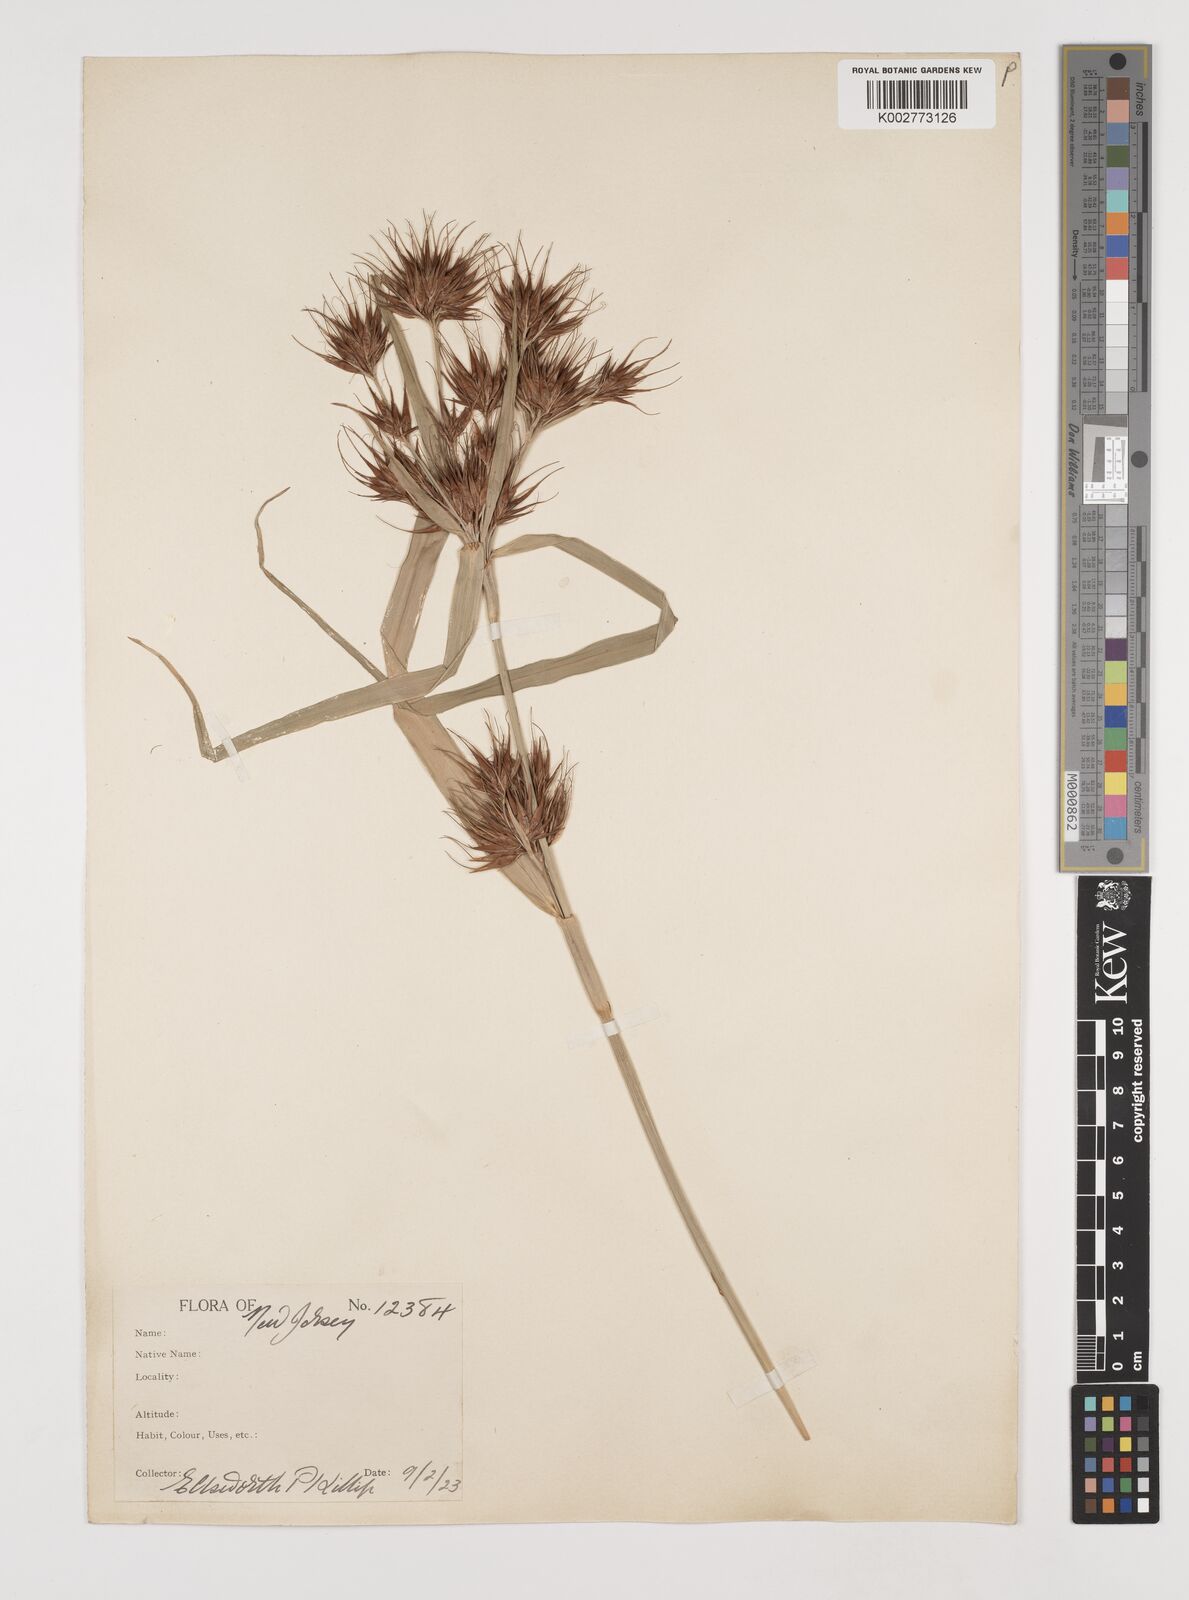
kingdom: Plantae
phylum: Tracheophyta
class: Liliopsida
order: Poales
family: Cyperaceae
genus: Rhynchospora
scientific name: Rhynchospora
